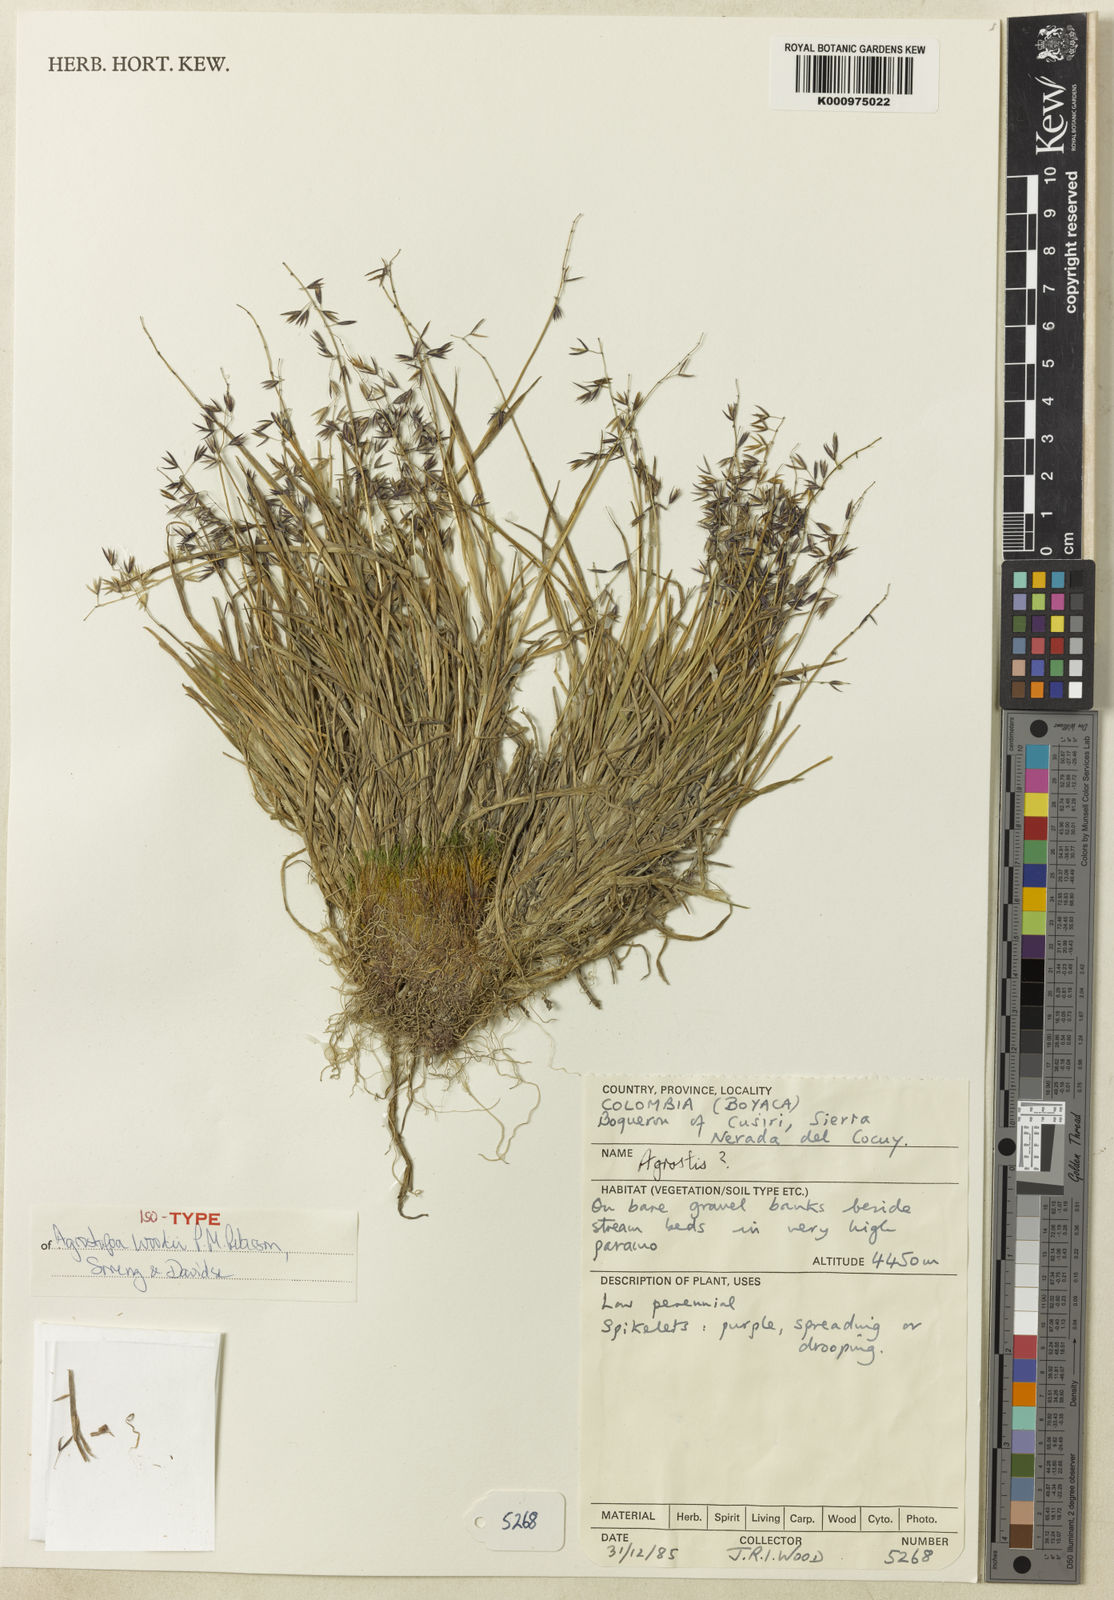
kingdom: Plantae
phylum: Tracheophyta
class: Liliopsida
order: Poales
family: Poaceae
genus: Agrostopoa
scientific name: Agrostopoa woodii
